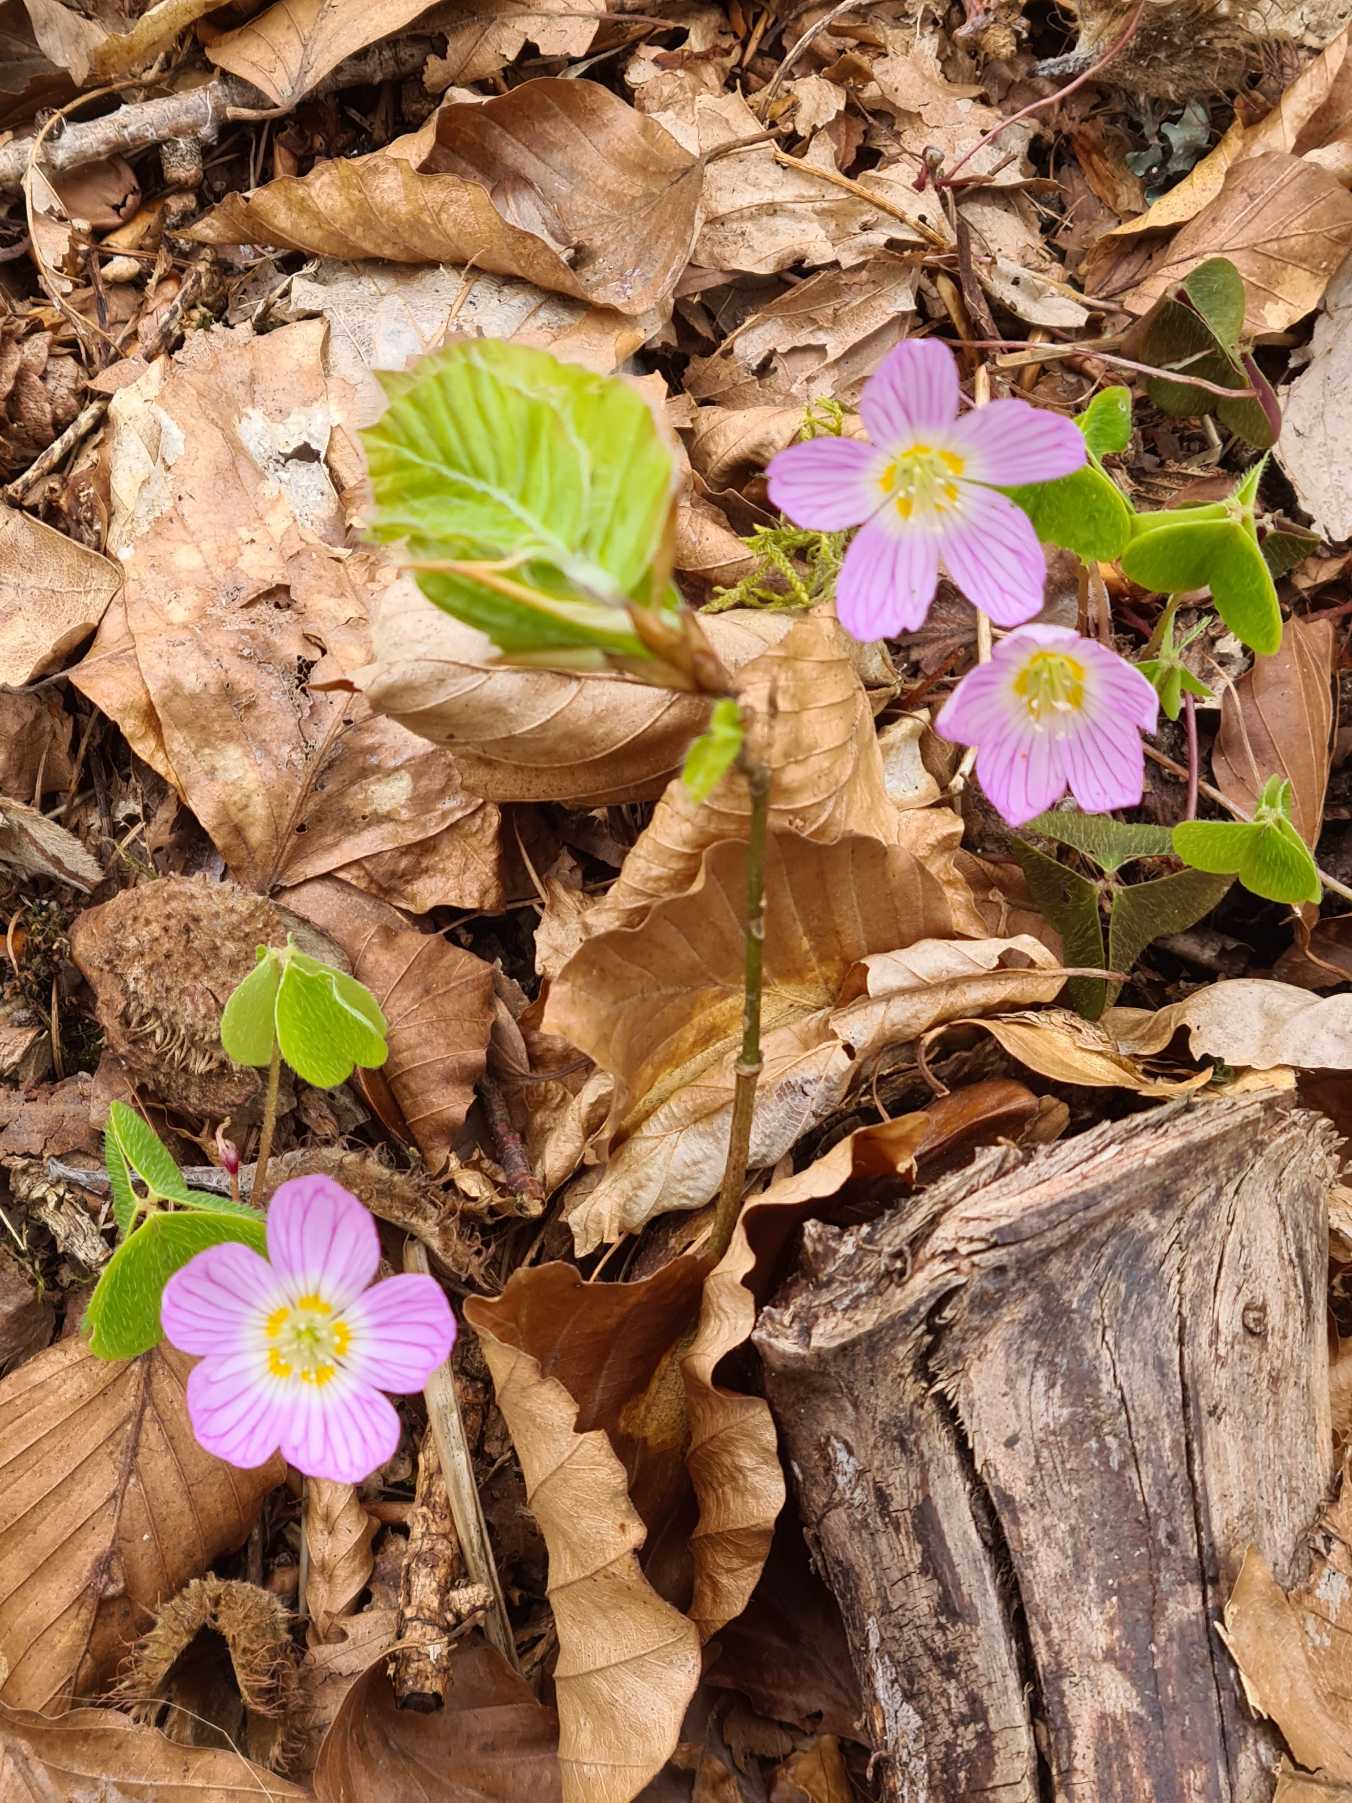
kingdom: Plantae
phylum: Tracheophyta
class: Magnoliopsida
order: Oxalidales
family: Oxalidaceae
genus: Oxalis
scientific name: Oxalis acetosella
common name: Skovsyre
